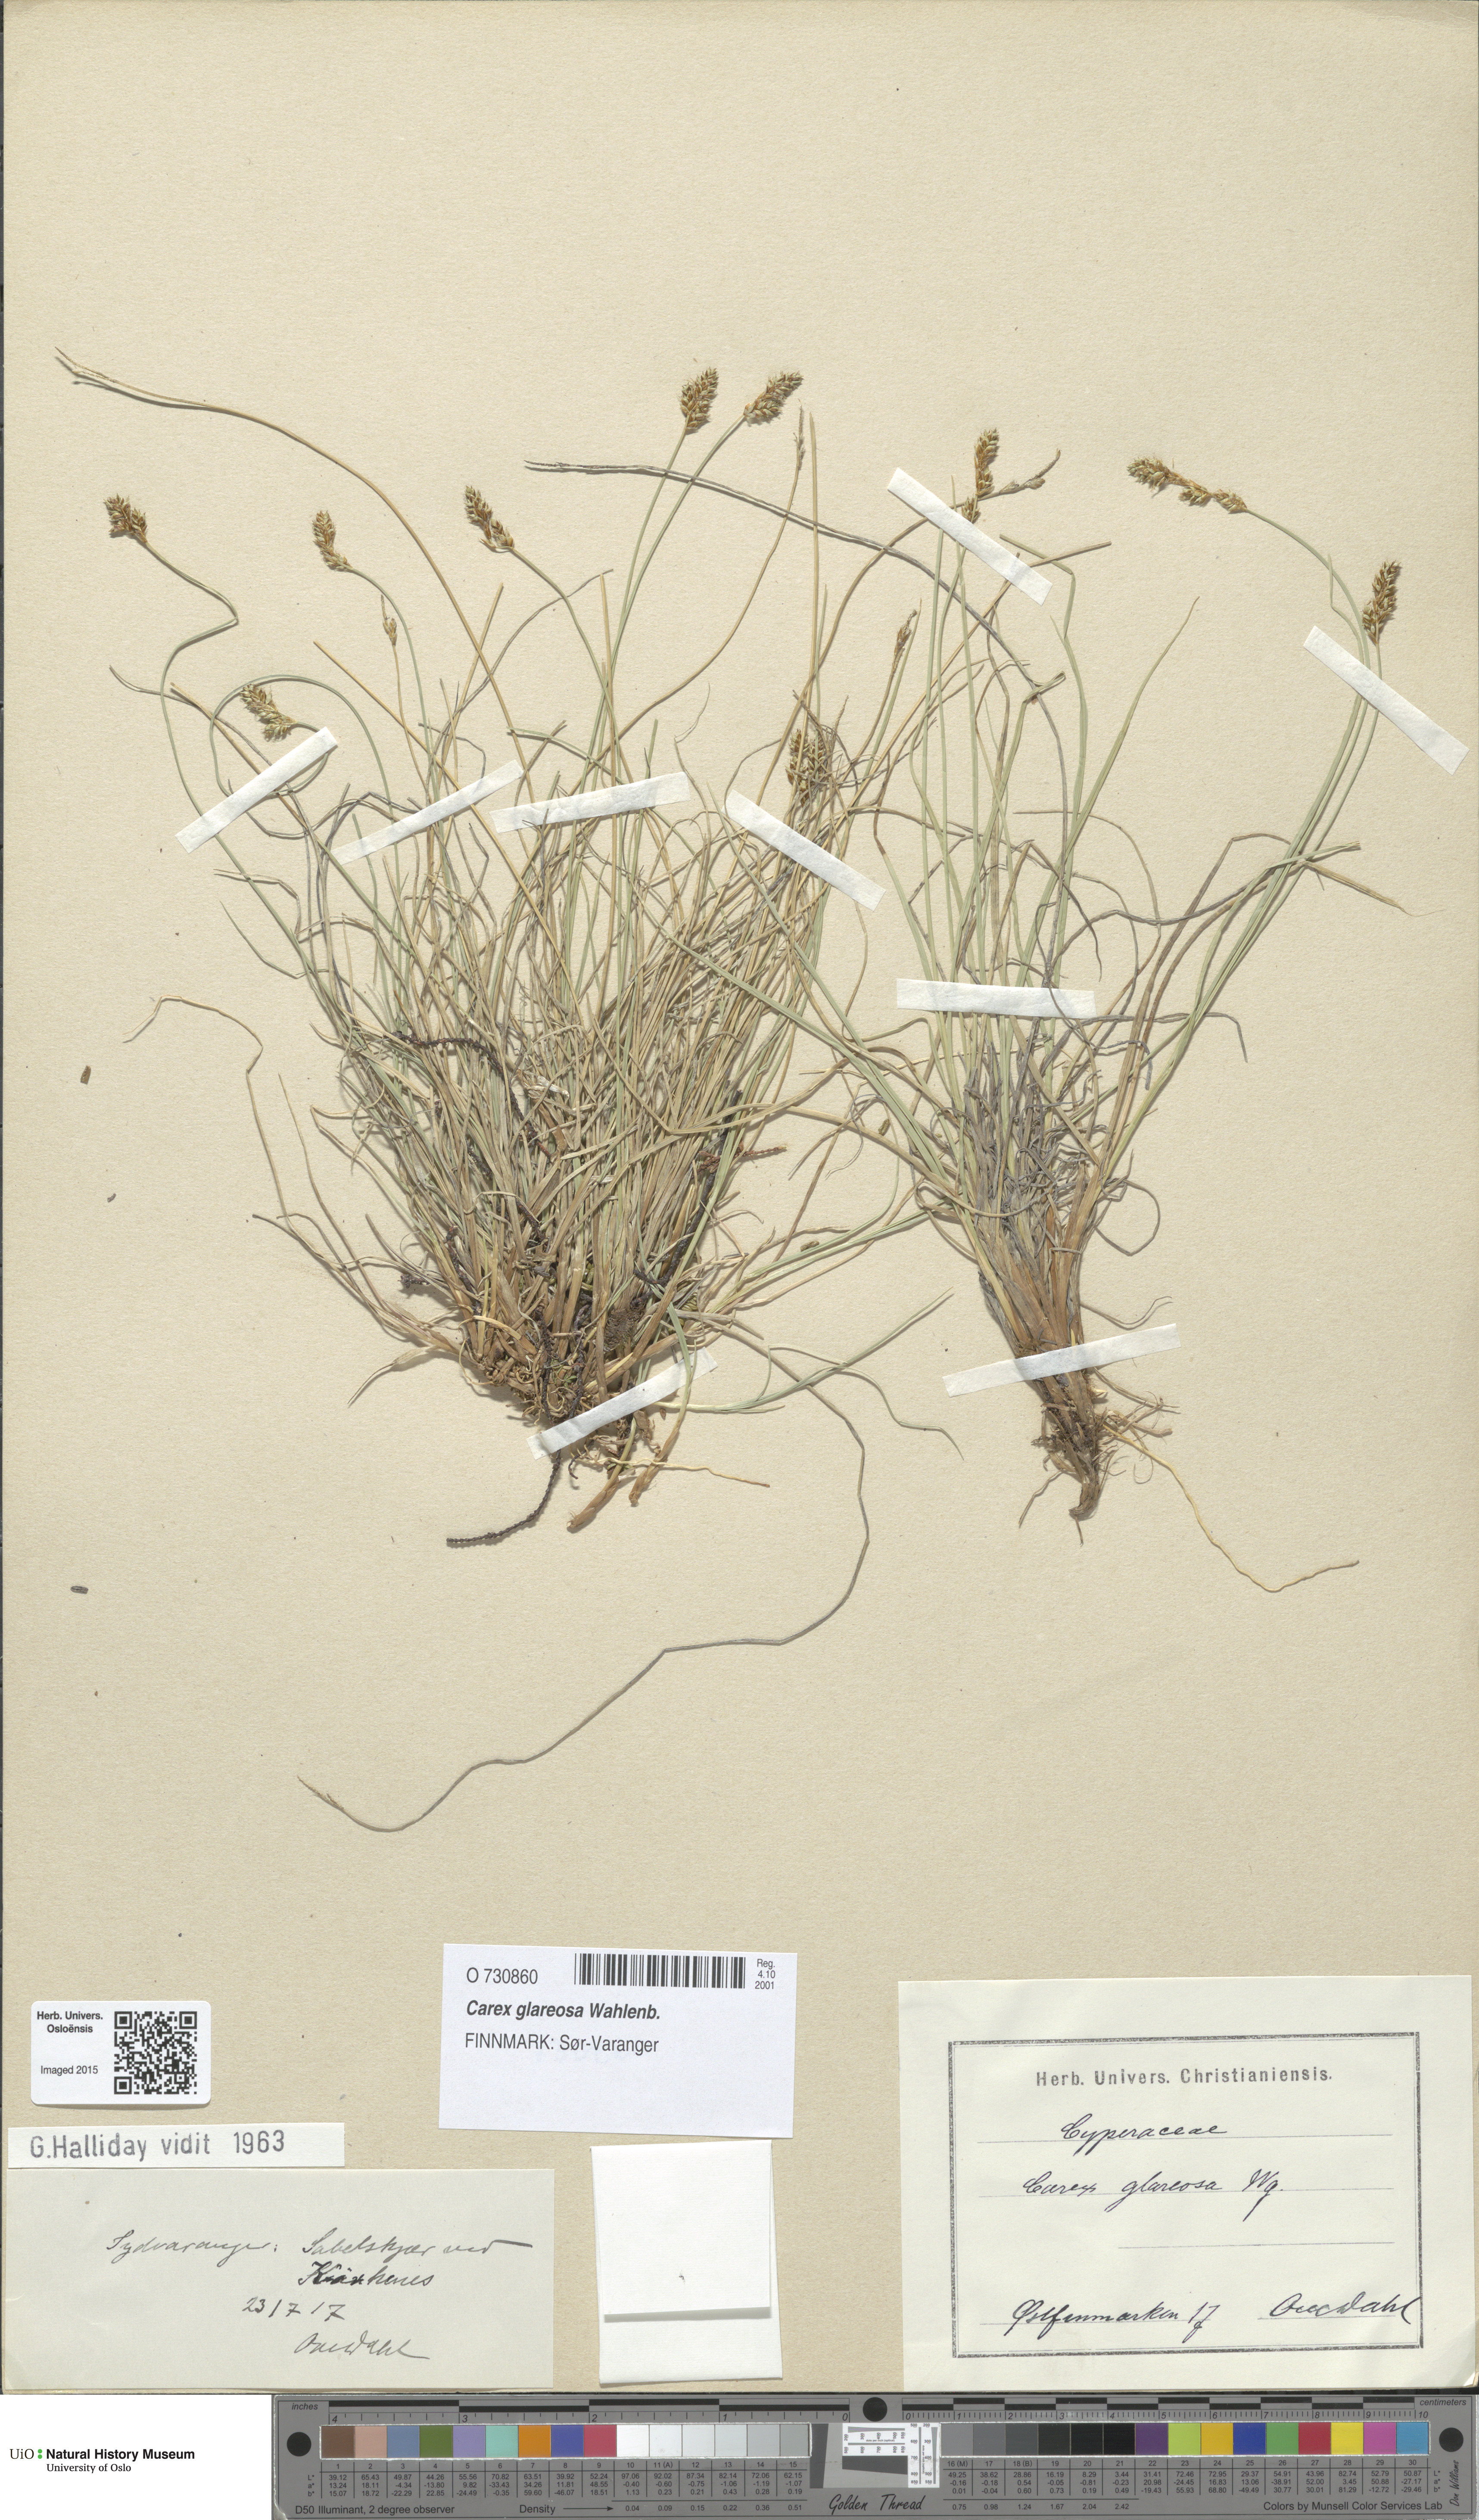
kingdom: Plantae
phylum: Tracheophyta
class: Liliopsida
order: Poales
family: Cyperaceae
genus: Carex
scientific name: Carex glareosa
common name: Clustered sedge
